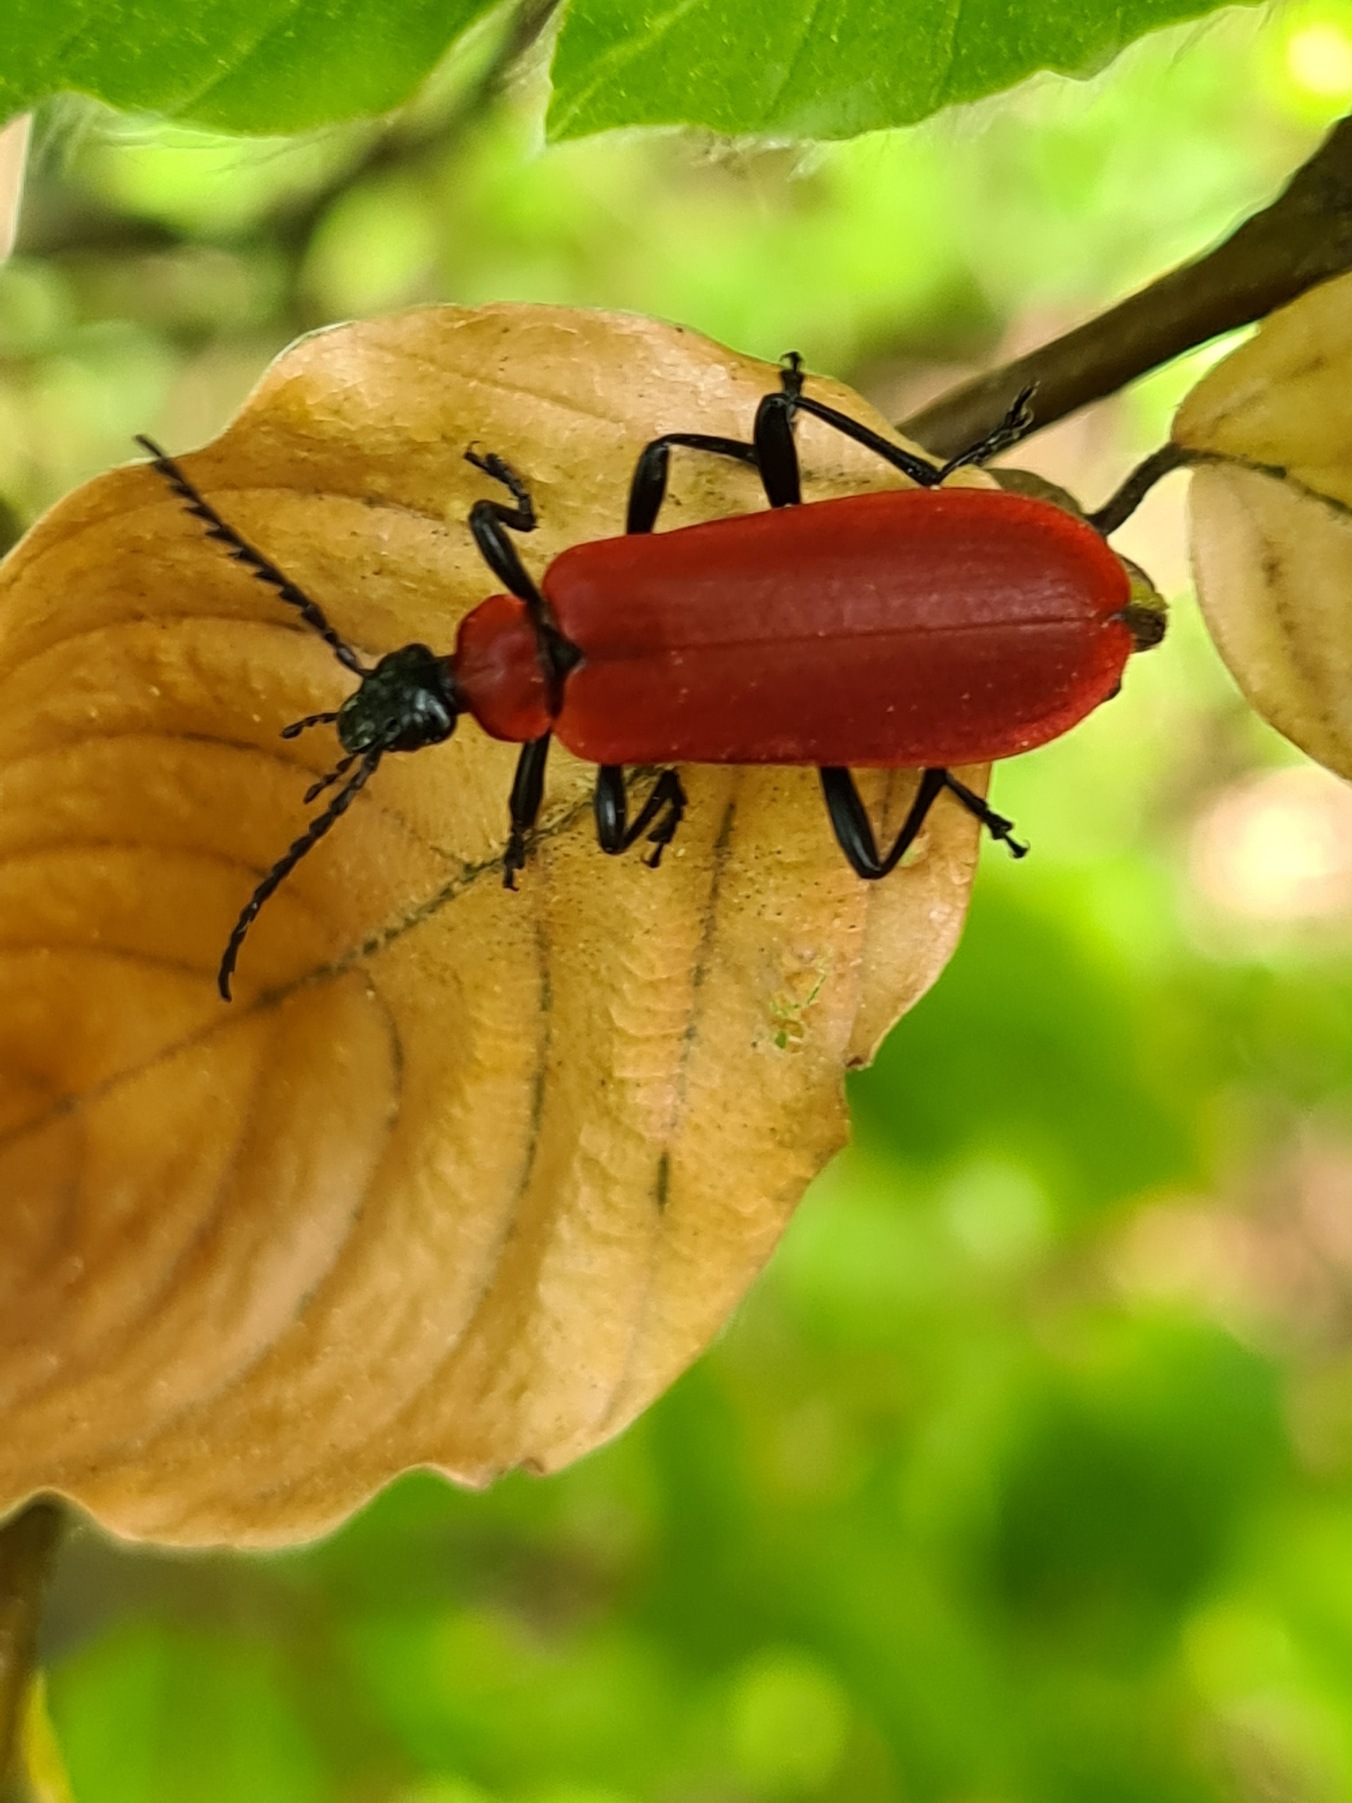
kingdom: Animalia
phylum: Arthropoda
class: Insecta
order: Coleoptera
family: Pyrochroidae
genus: Pyrochroa
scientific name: Pyrochroa coccinea
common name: Sorthovedet kardinalbille
